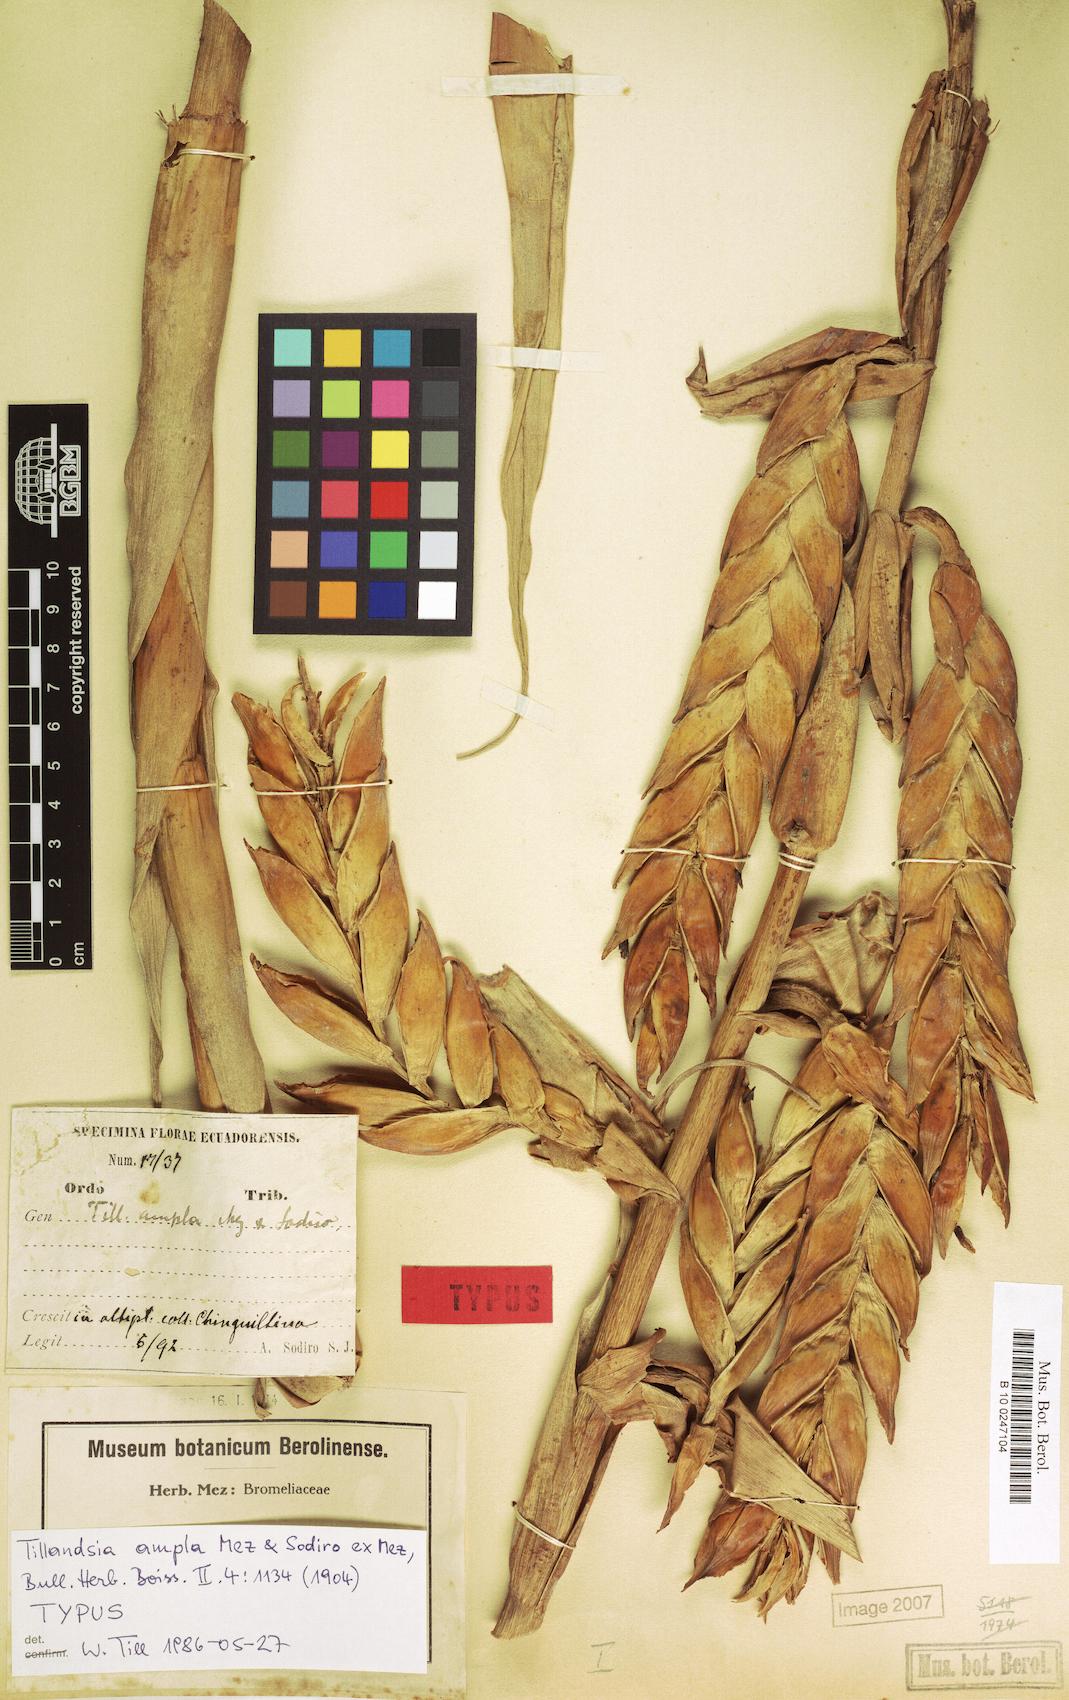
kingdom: Plantae
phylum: Tracheophyta
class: Liliopsida
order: Poales
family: Bromeliaceae
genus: Tillandsia
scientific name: Tillandsia lajensis
